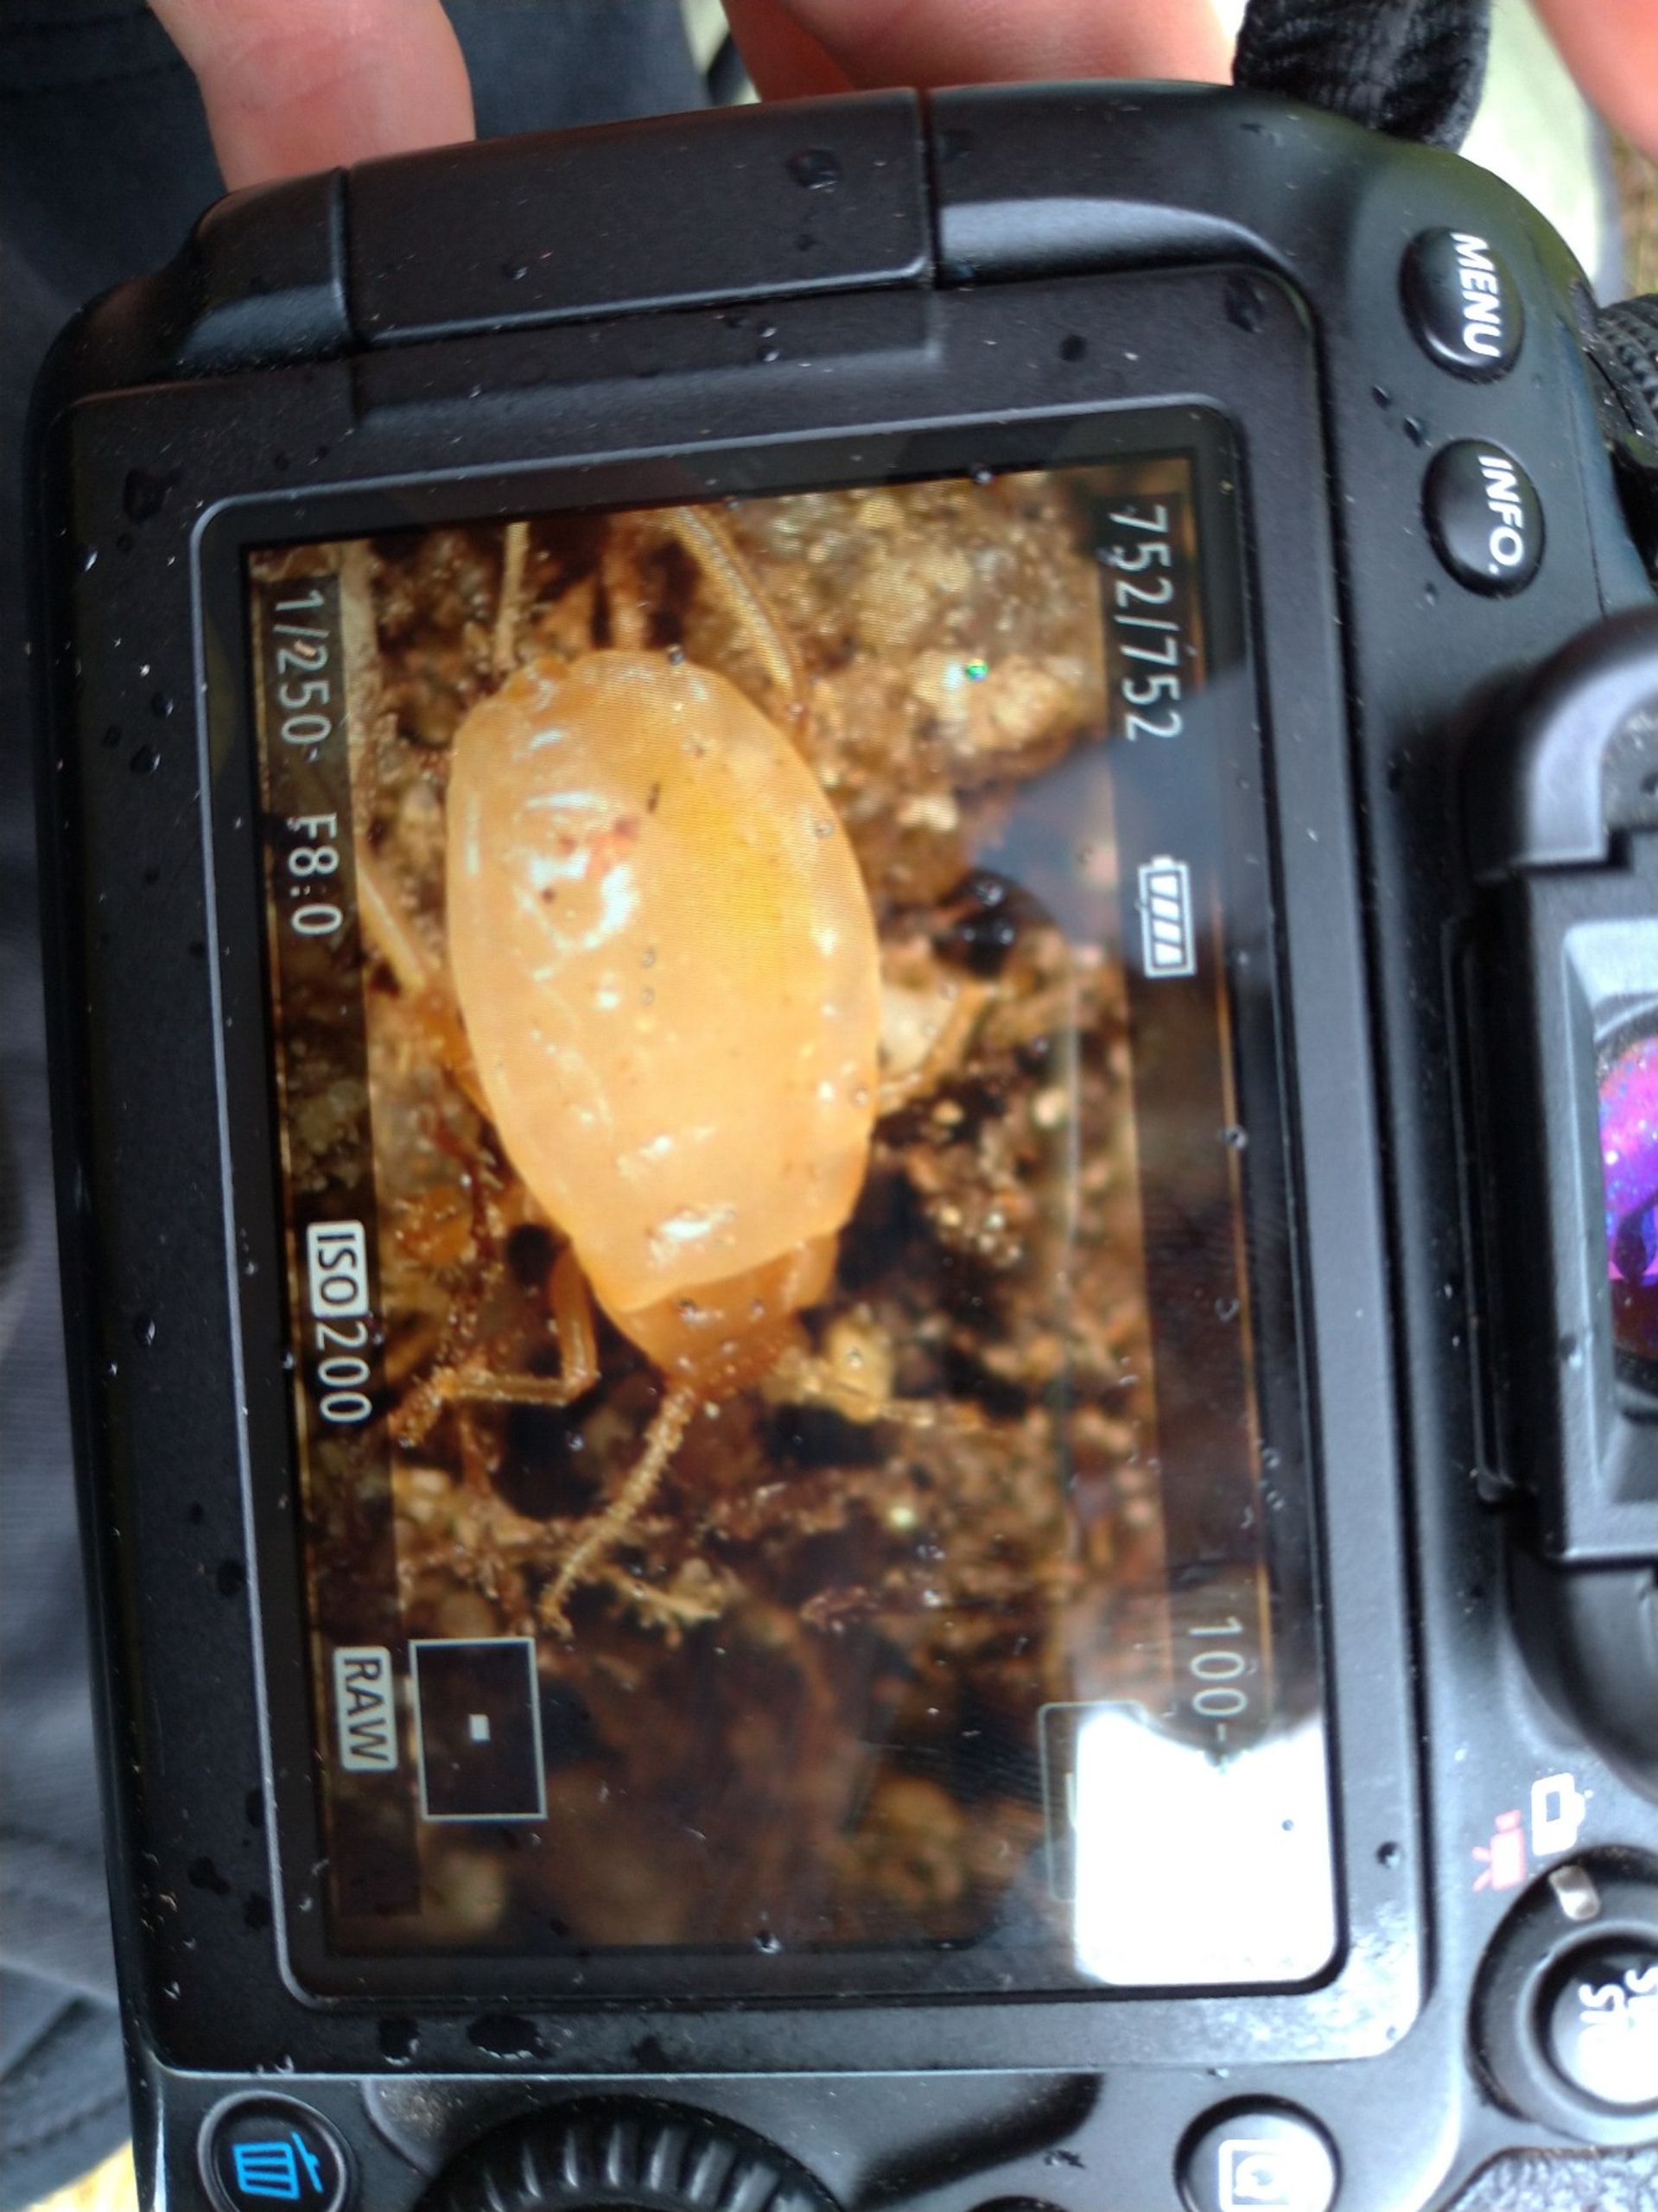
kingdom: Animalia
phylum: Arthropoda
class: Insecta
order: Hemiptera
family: Aphididae
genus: Paracletus
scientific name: Paracletus cimiciformis
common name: Vampyrrodlus
